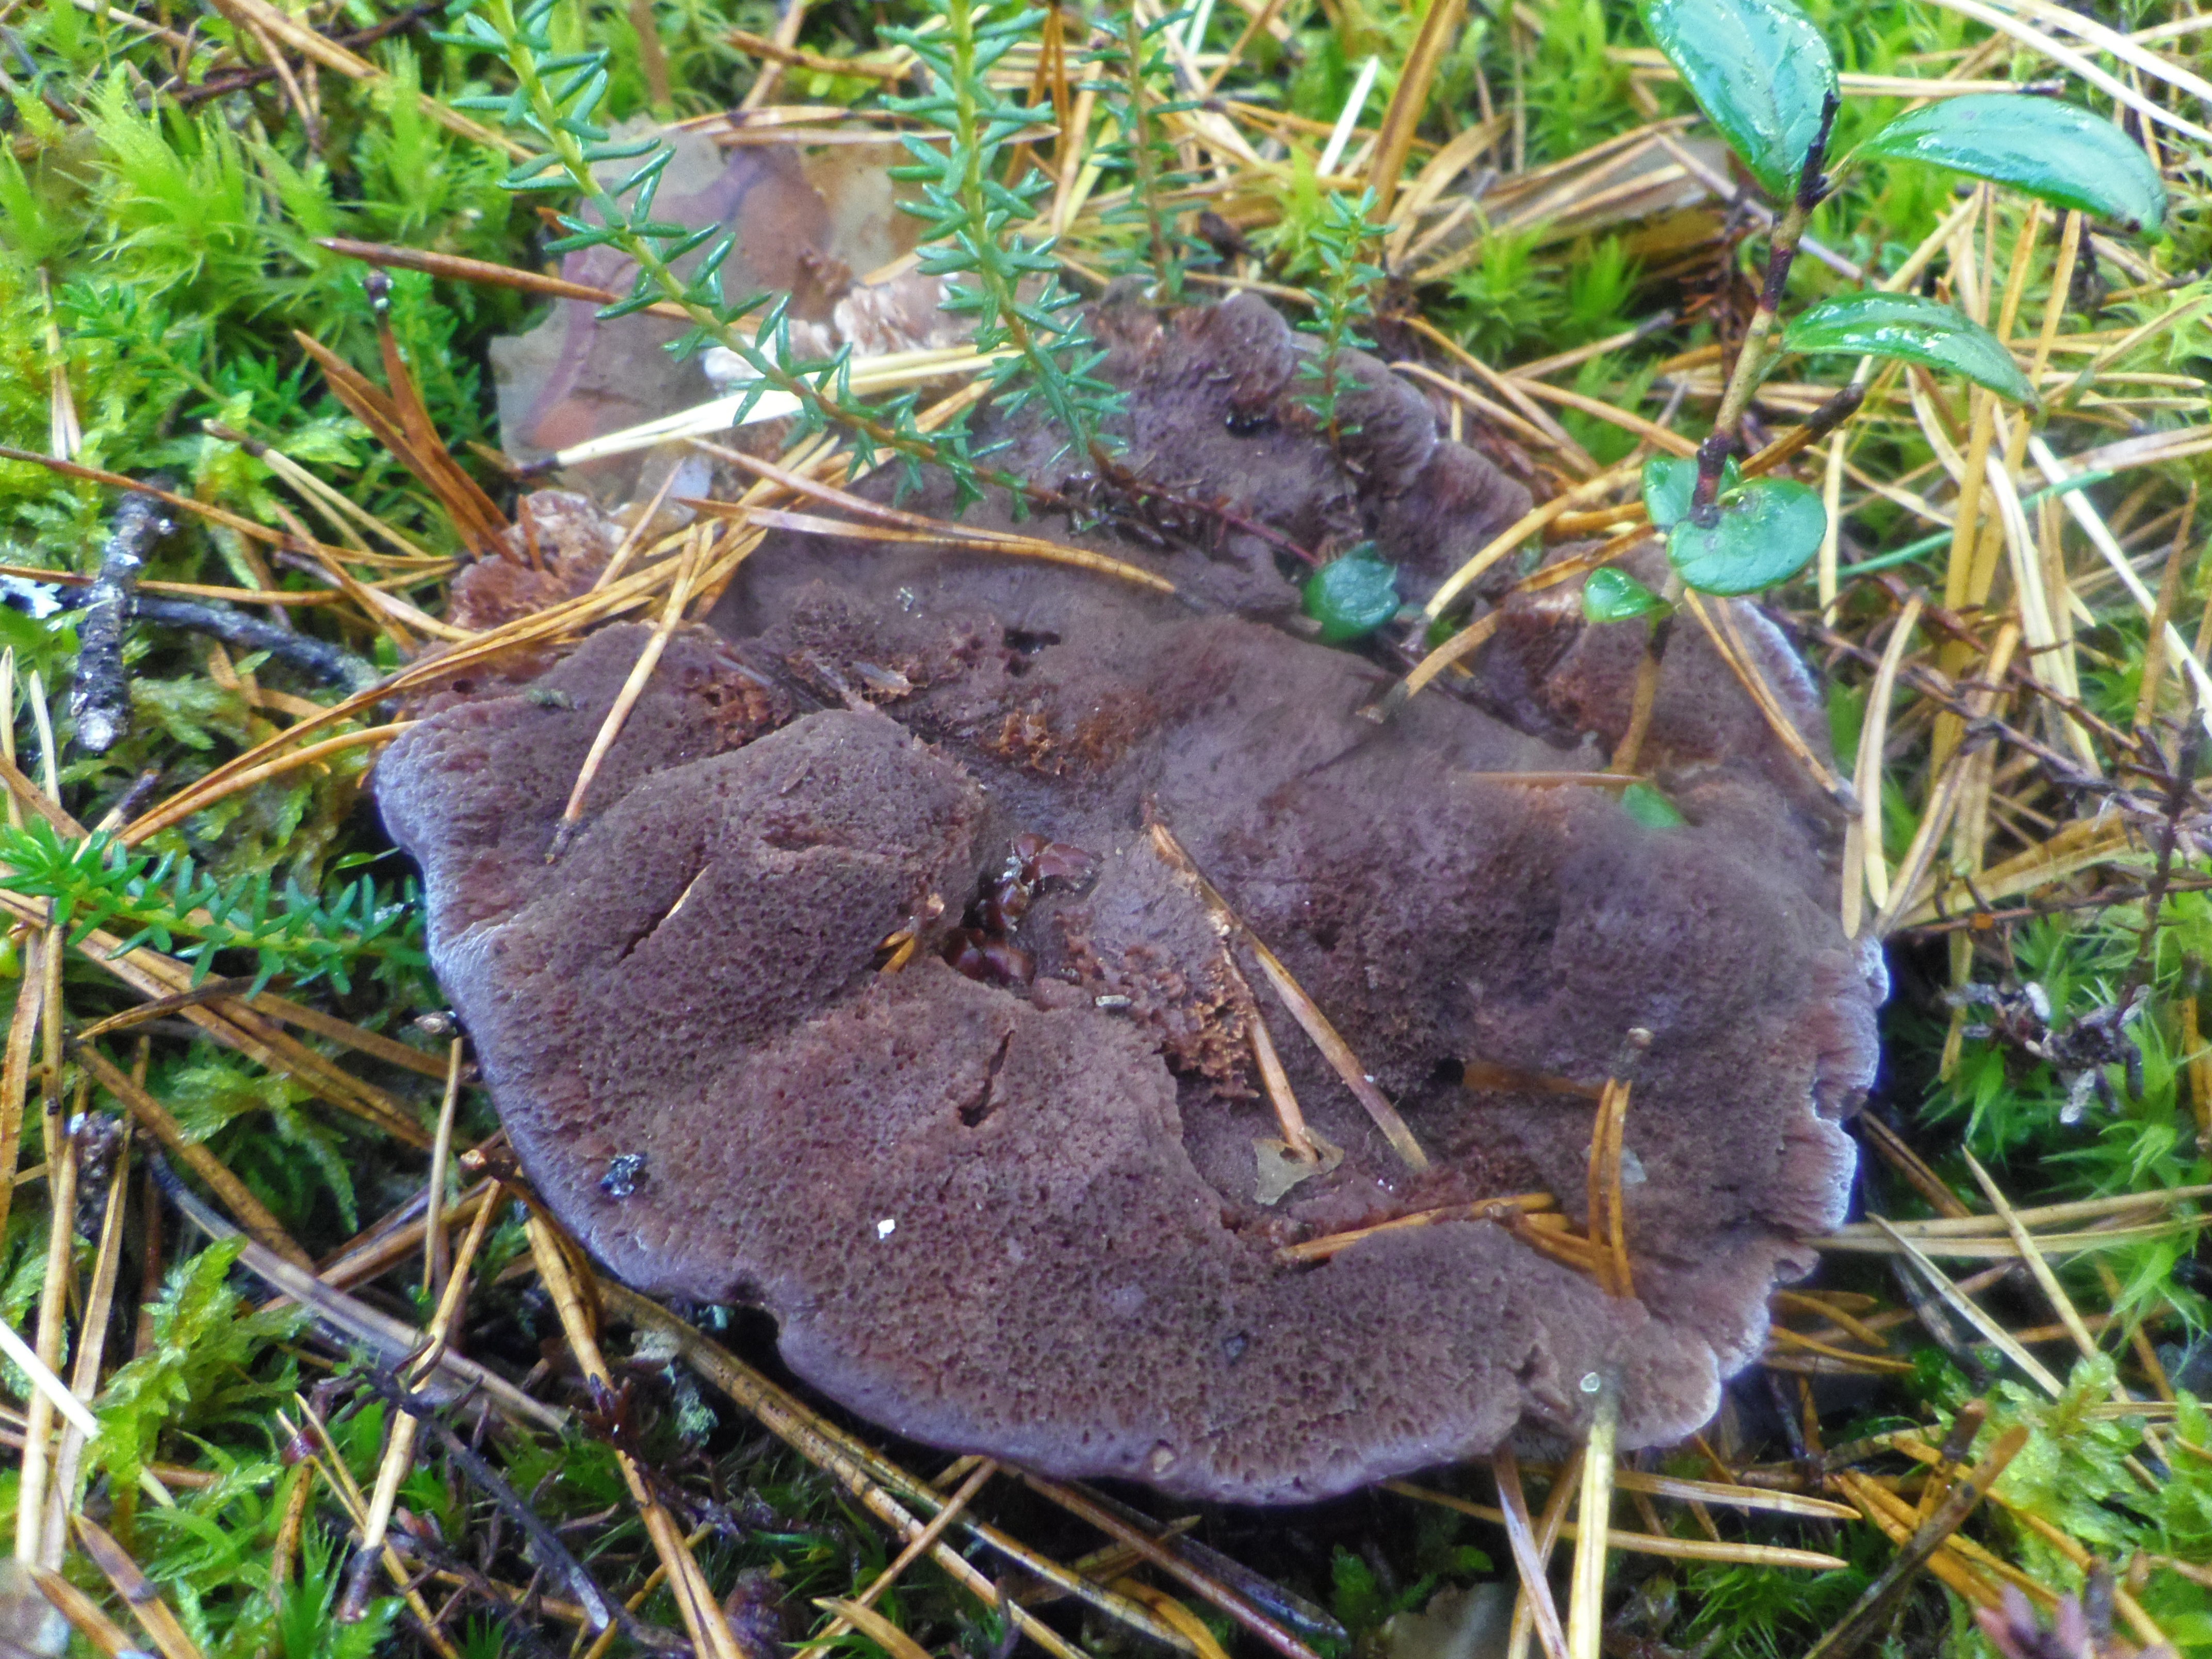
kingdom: Fungi
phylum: Basidiomycota
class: Agaricomycetes
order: Thelephorales
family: Bankeraceae
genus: Hydnellum
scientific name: Hydnellum ferrugineum
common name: Mealy tooth
